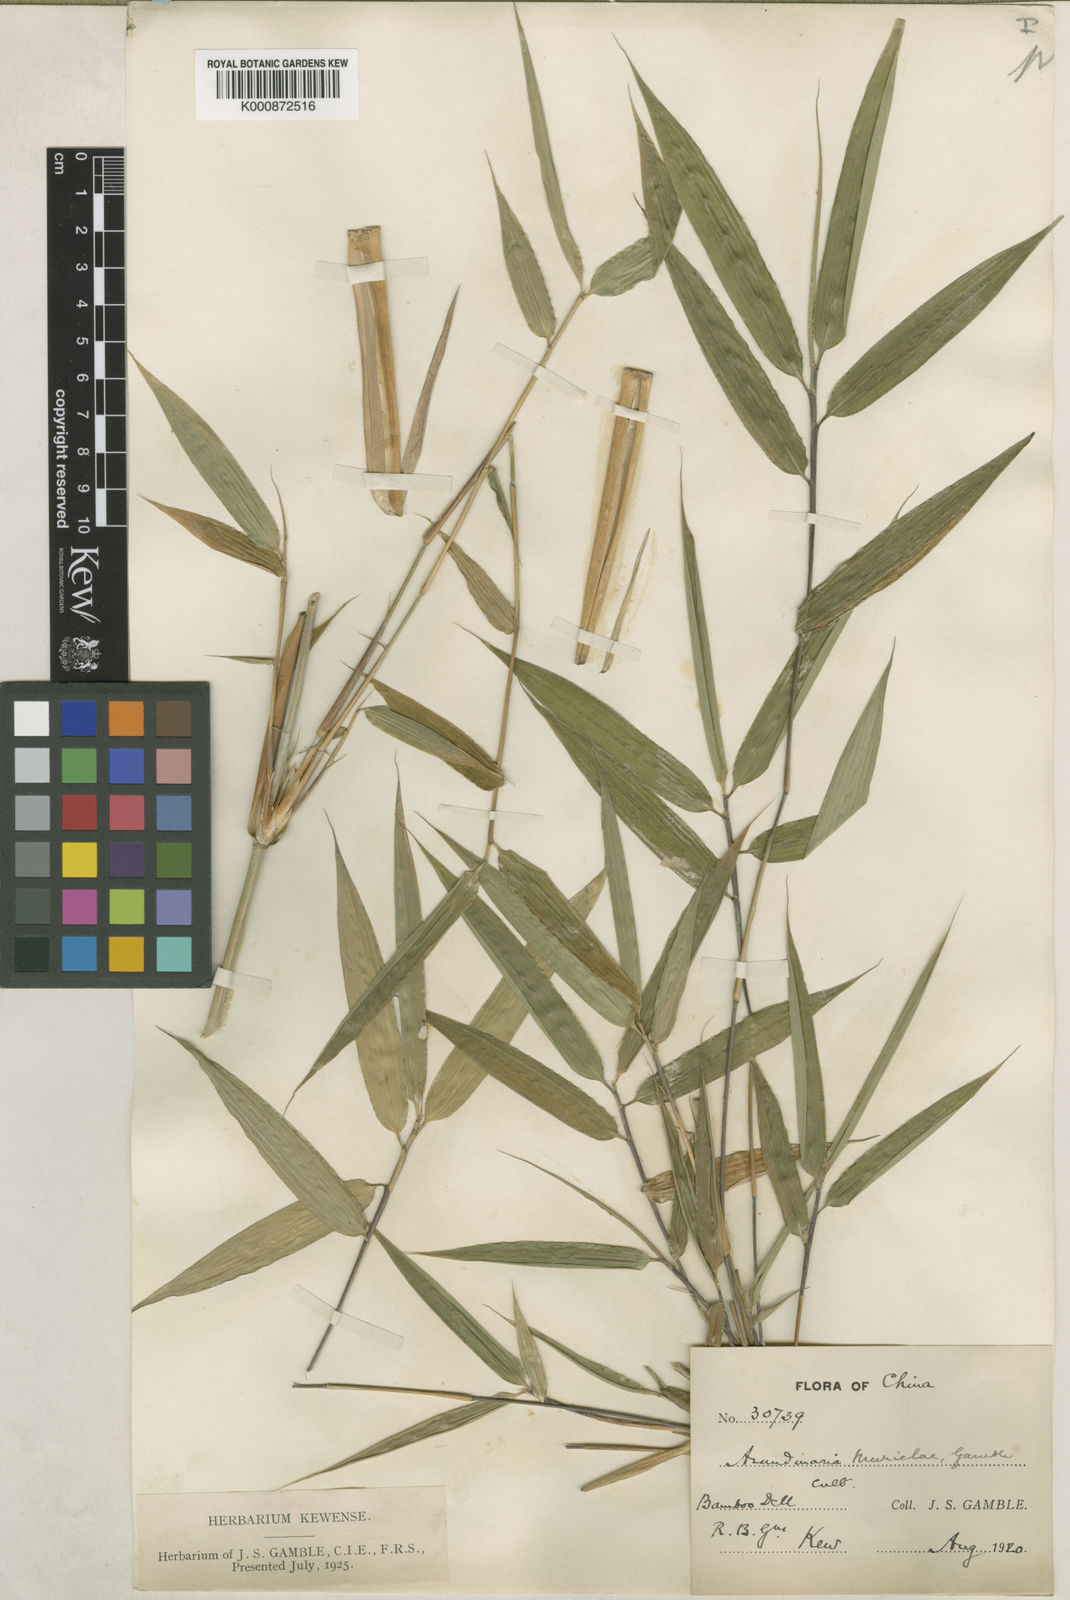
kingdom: Plantae
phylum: Tracheophyta
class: Liliopsida
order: Poales
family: Poaceae
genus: Fargesia
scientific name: Fargesia murielae
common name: Umbrella bamboo
